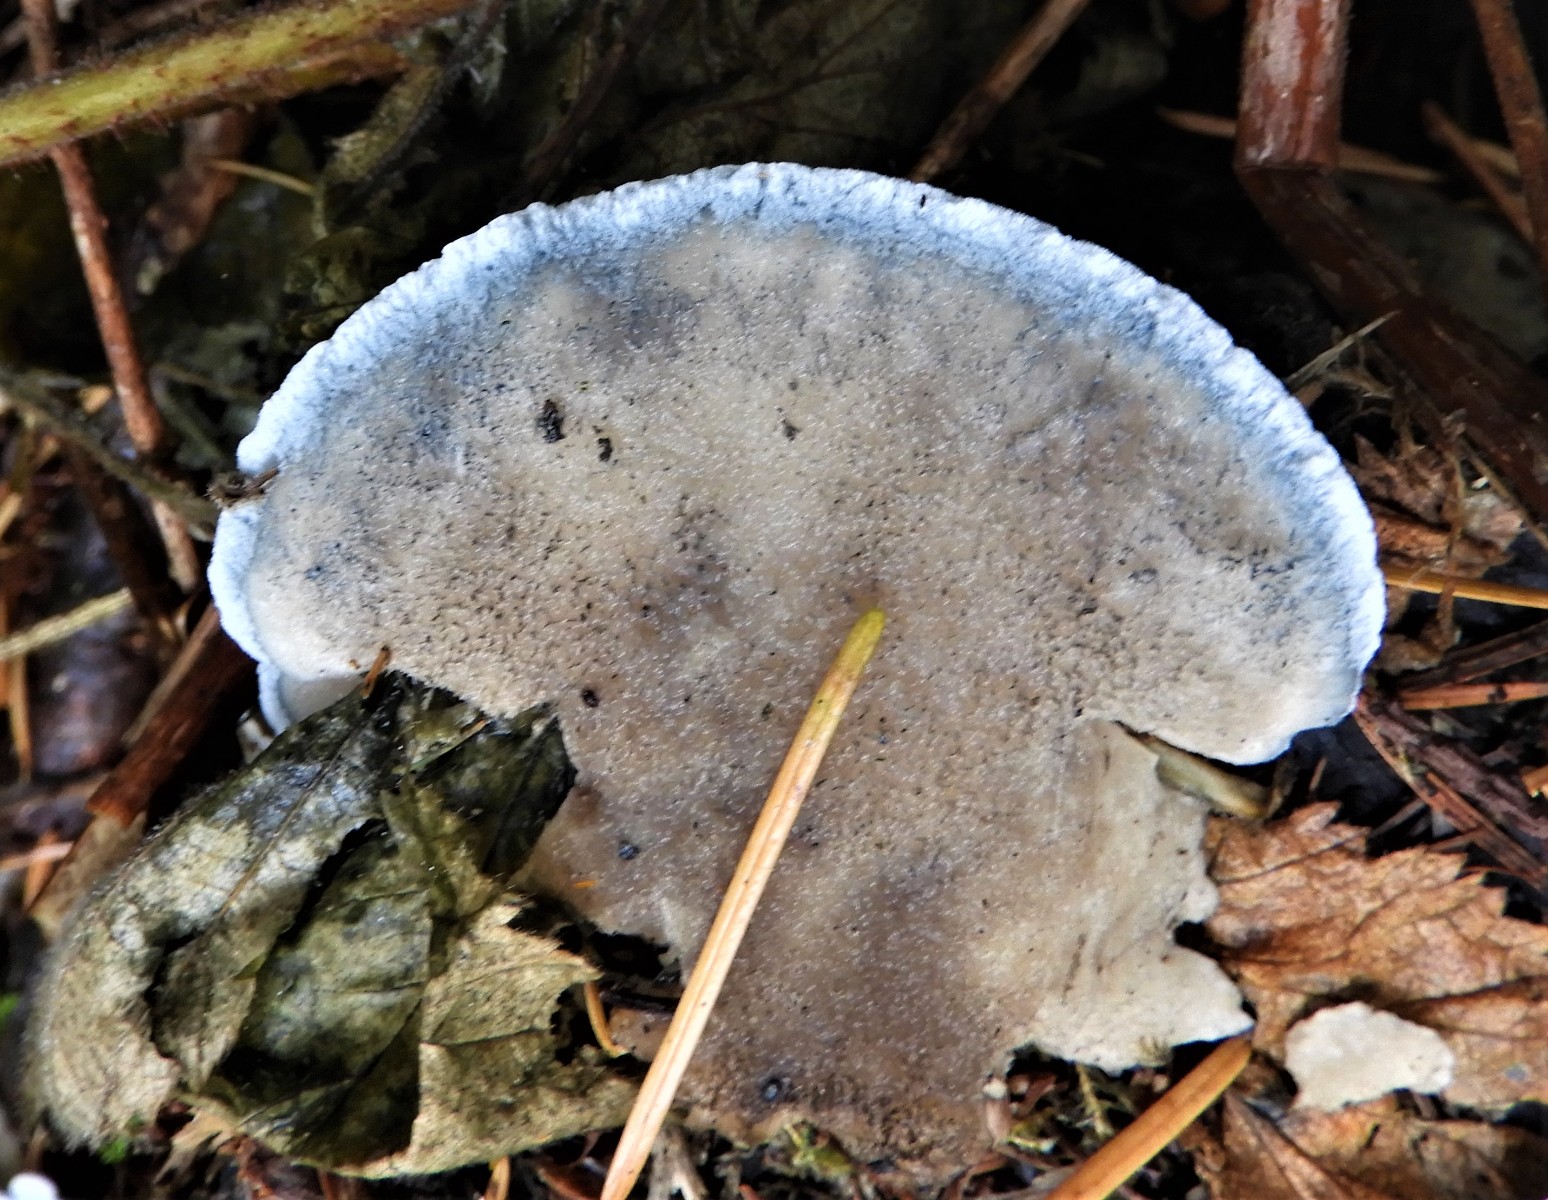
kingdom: Fungi
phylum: Basidiomycota
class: Agaricomycetes
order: Polyporales
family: Polyporaceae
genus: Cyanosporus
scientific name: Cyanosporus caesius
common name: blålig kødporesvamp
